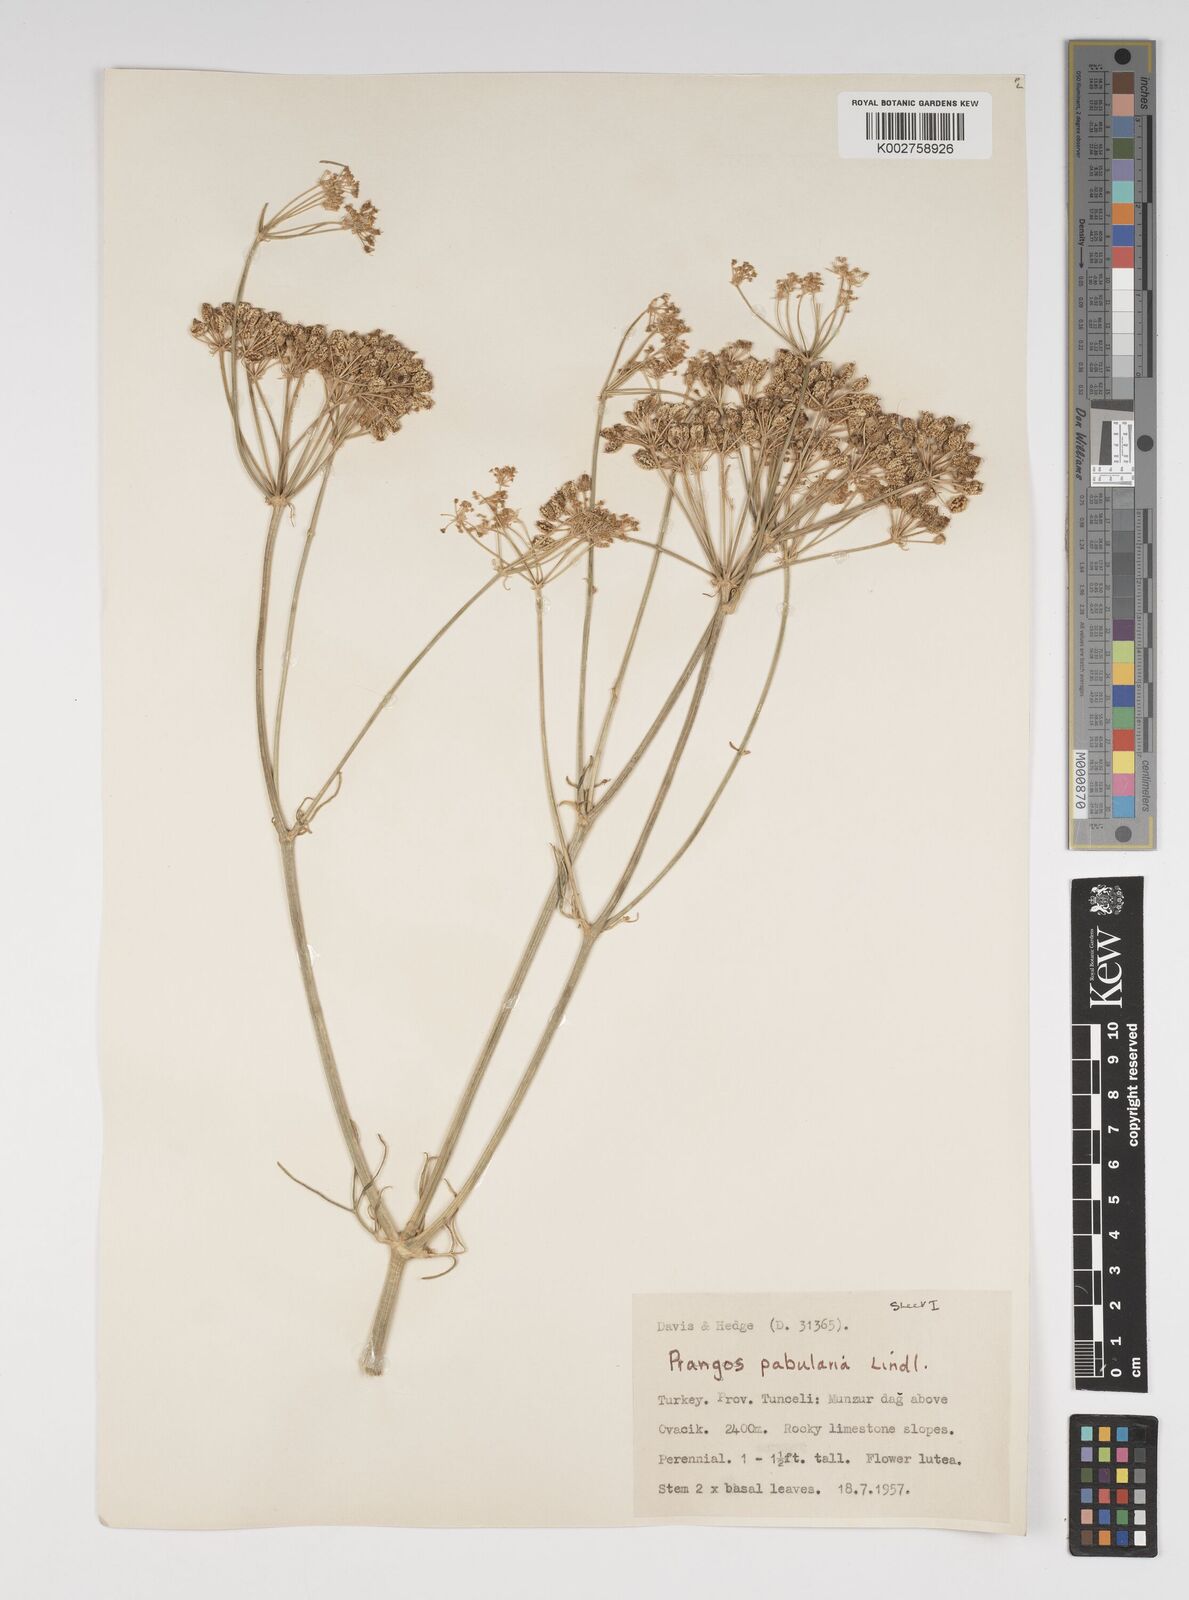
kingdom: Plantae
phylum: Tracheophyta
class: Magnoliopsida
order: Apiales
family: Apiaceae
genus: Prangos
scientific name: Prangos pabularia
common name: Yugan
